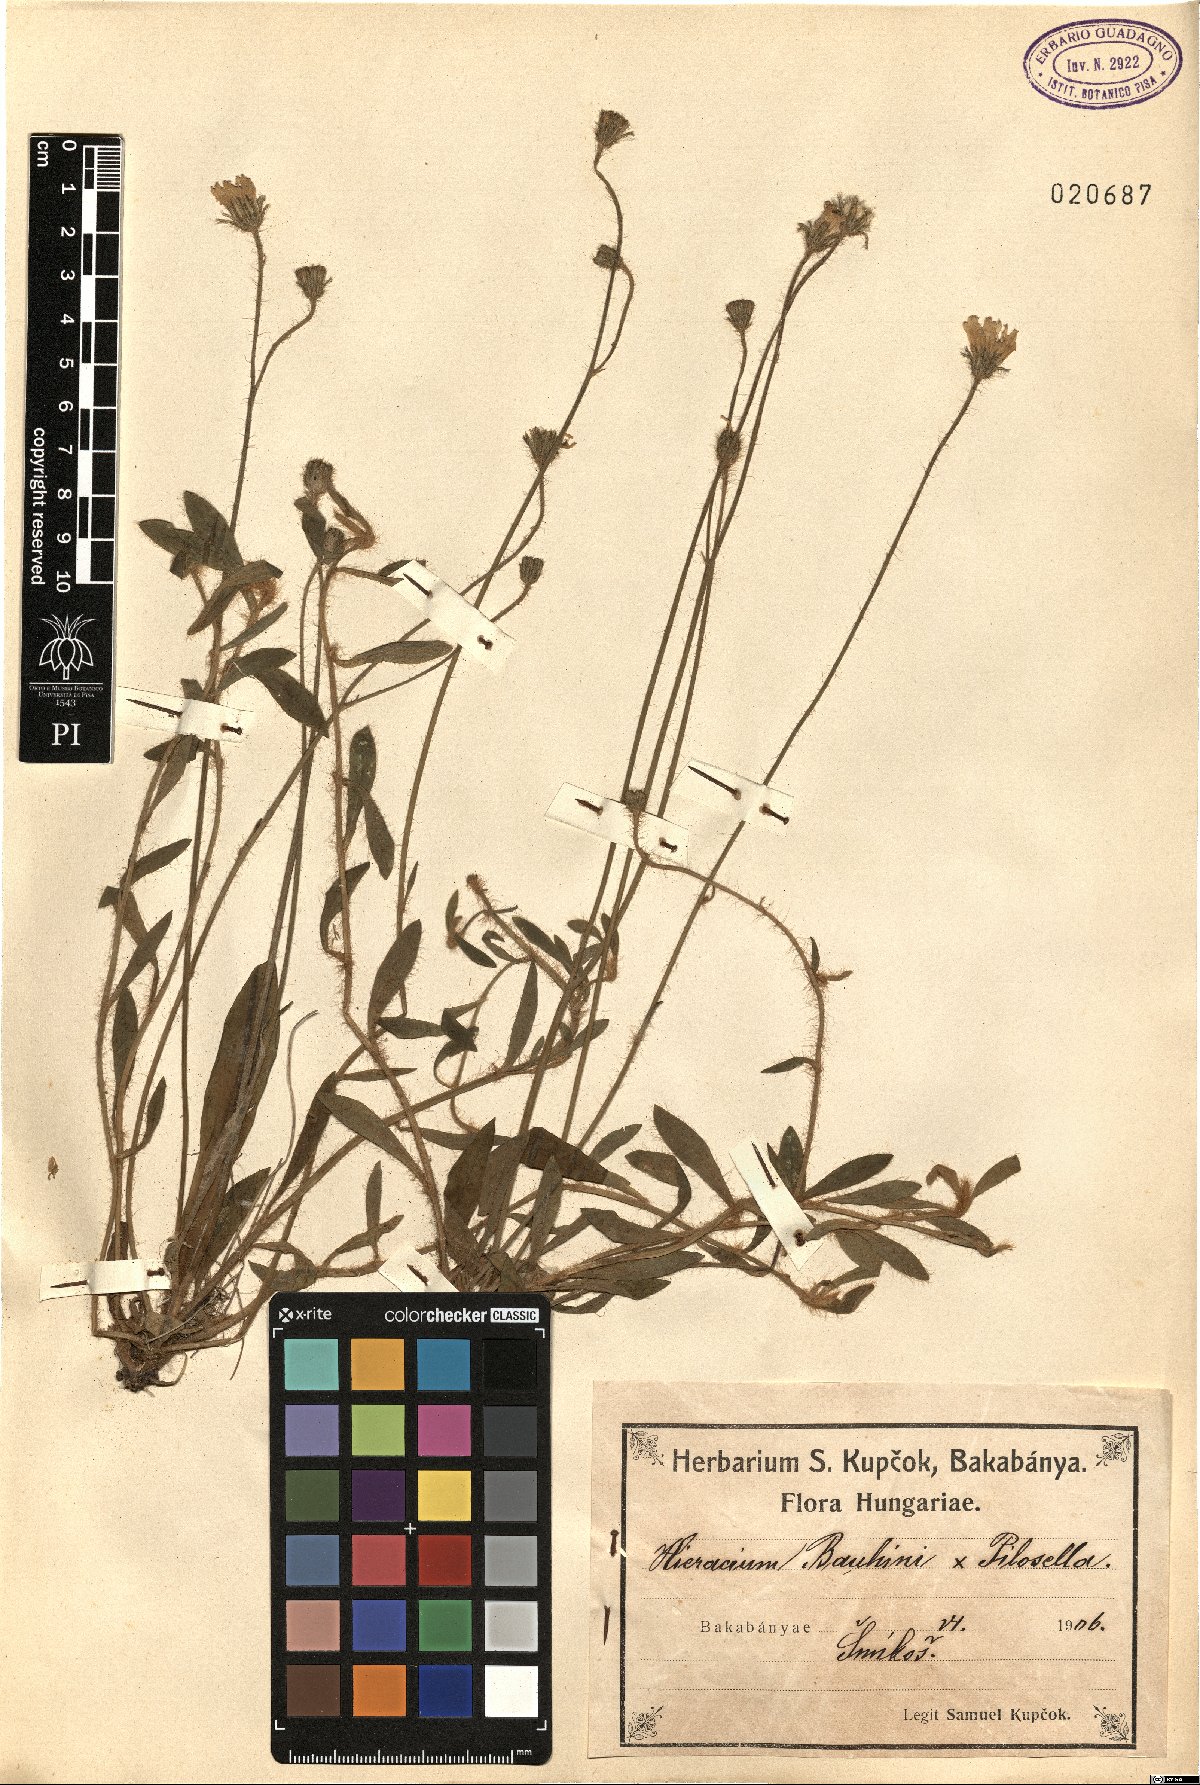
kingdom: Plantae
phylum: Tracheophyta
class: Magnoliopsida
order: Asterales
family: Asteraceae
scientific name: Asteraceae
